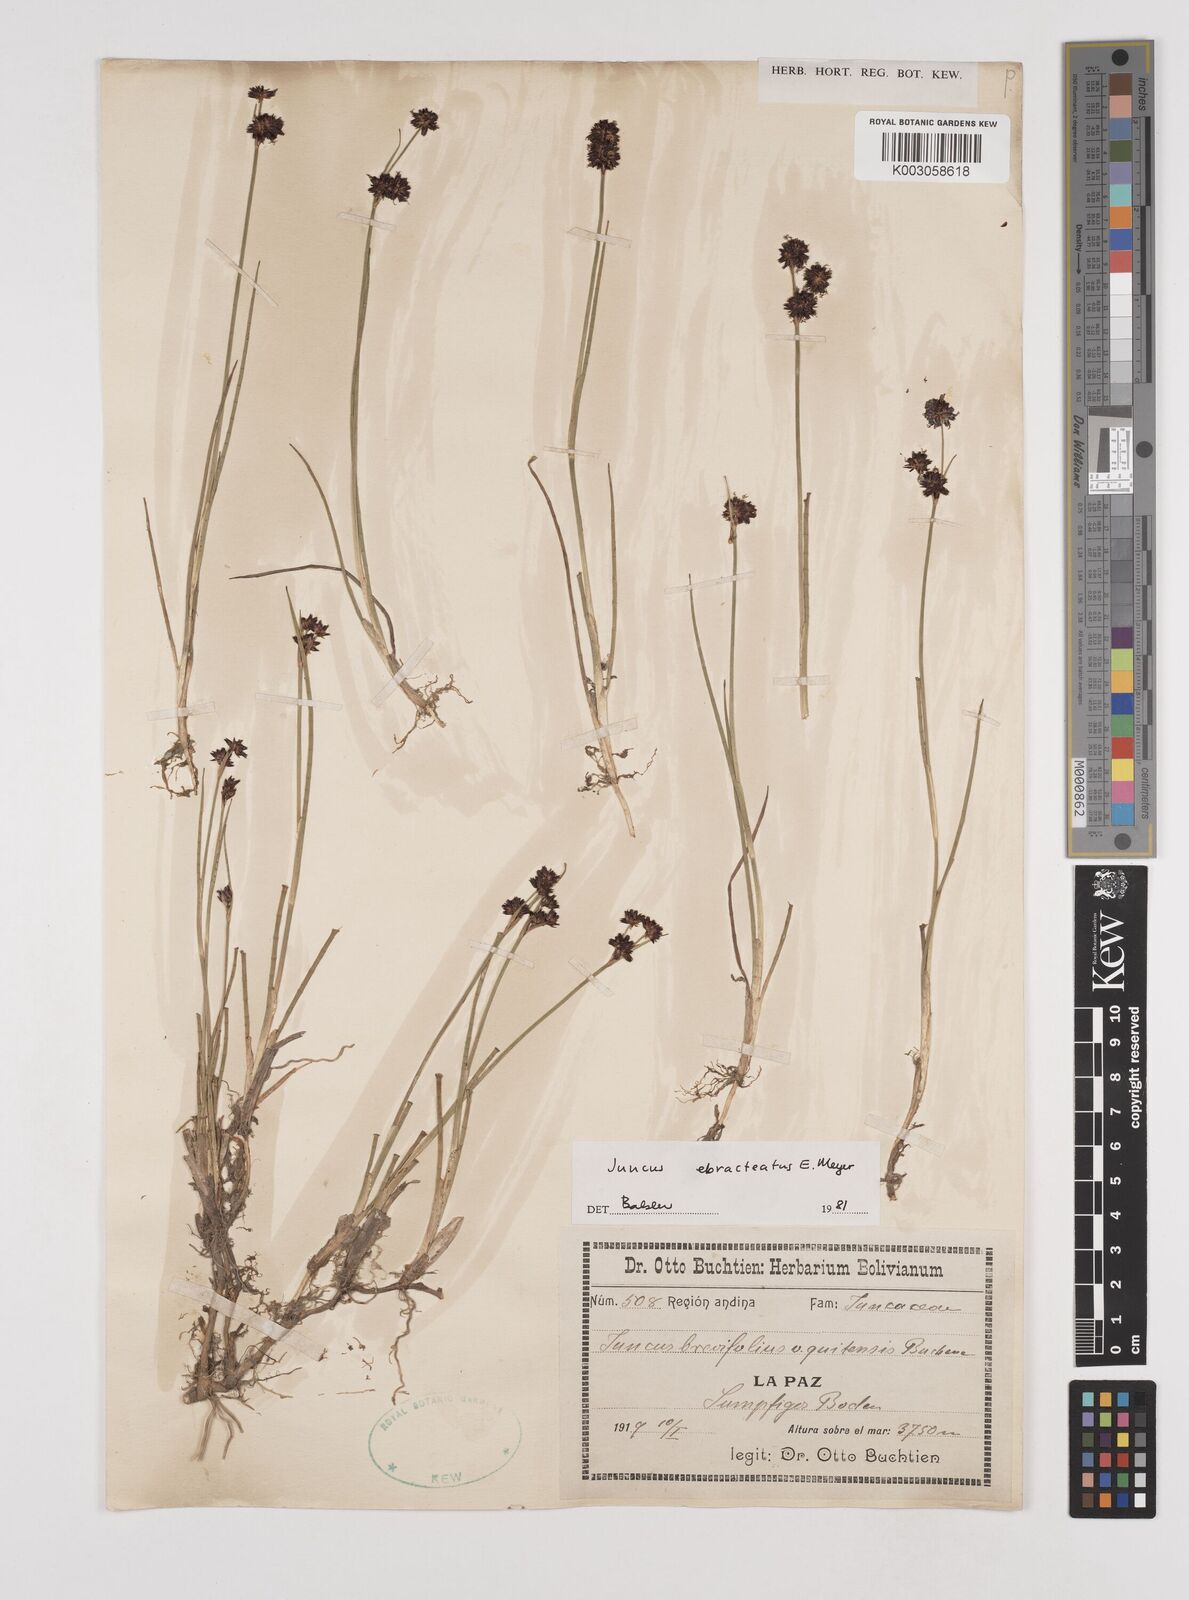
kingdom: Plantae
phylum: Tracheophyta
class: Liliopsida
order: Poales
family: Juncaceae
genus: Juncus
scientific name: Juncus ebracteatus
